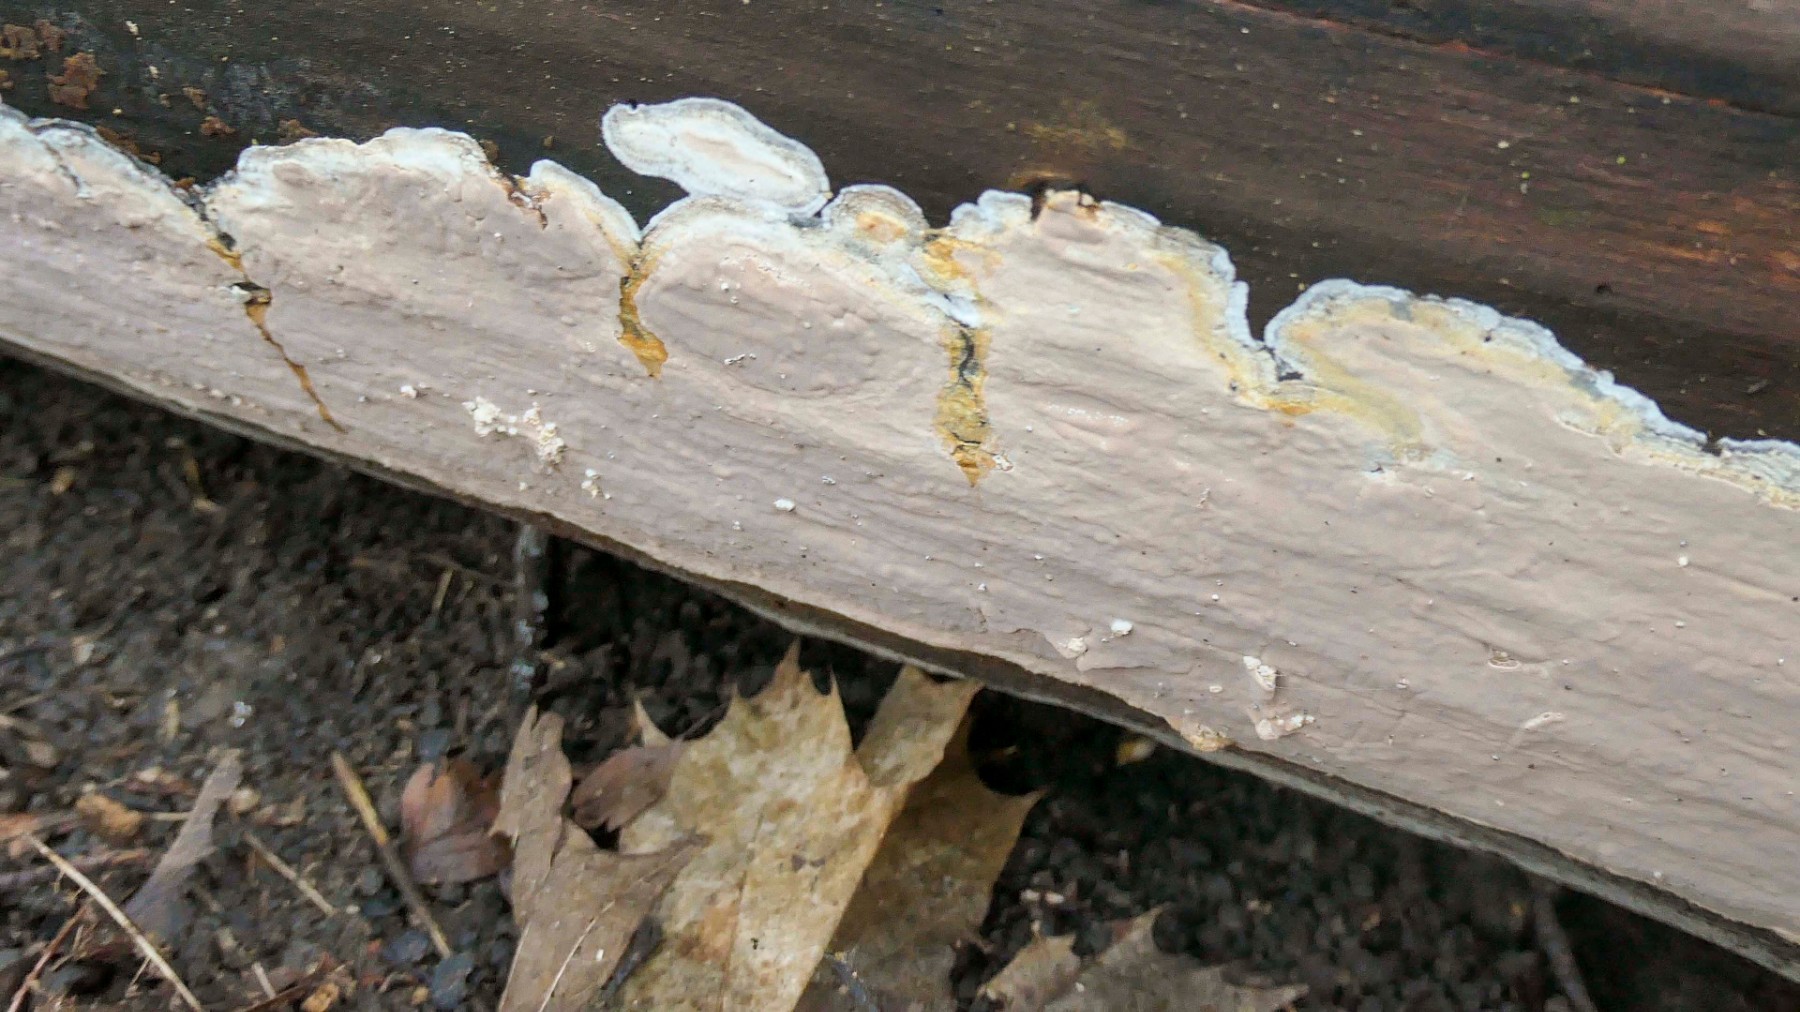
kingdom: Fungi
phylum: Basidiomycota
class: Agaricomycetes
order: Russulales
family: Peniophoraceae
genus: Scytinostroma
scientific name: Scytinostroma hemidichophyticum
